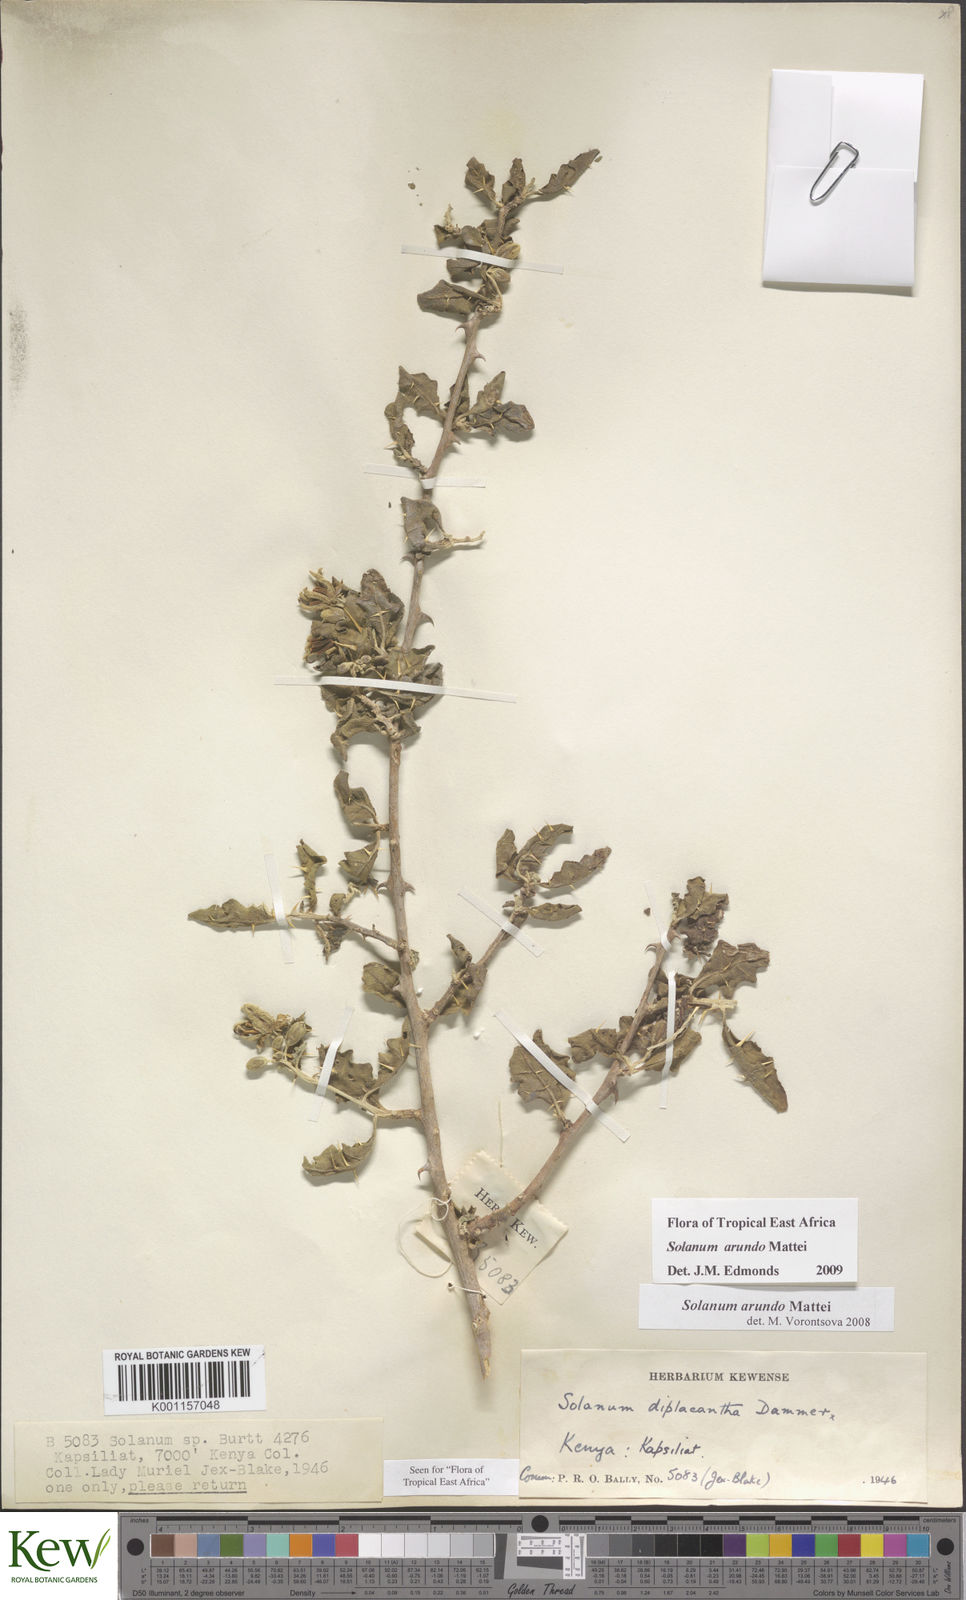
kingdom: Plantae
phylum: Tracheophyta
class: Magnoliopsida
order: Solanales
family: Solanaceae
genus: Solanum
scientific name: Solanum arundo
